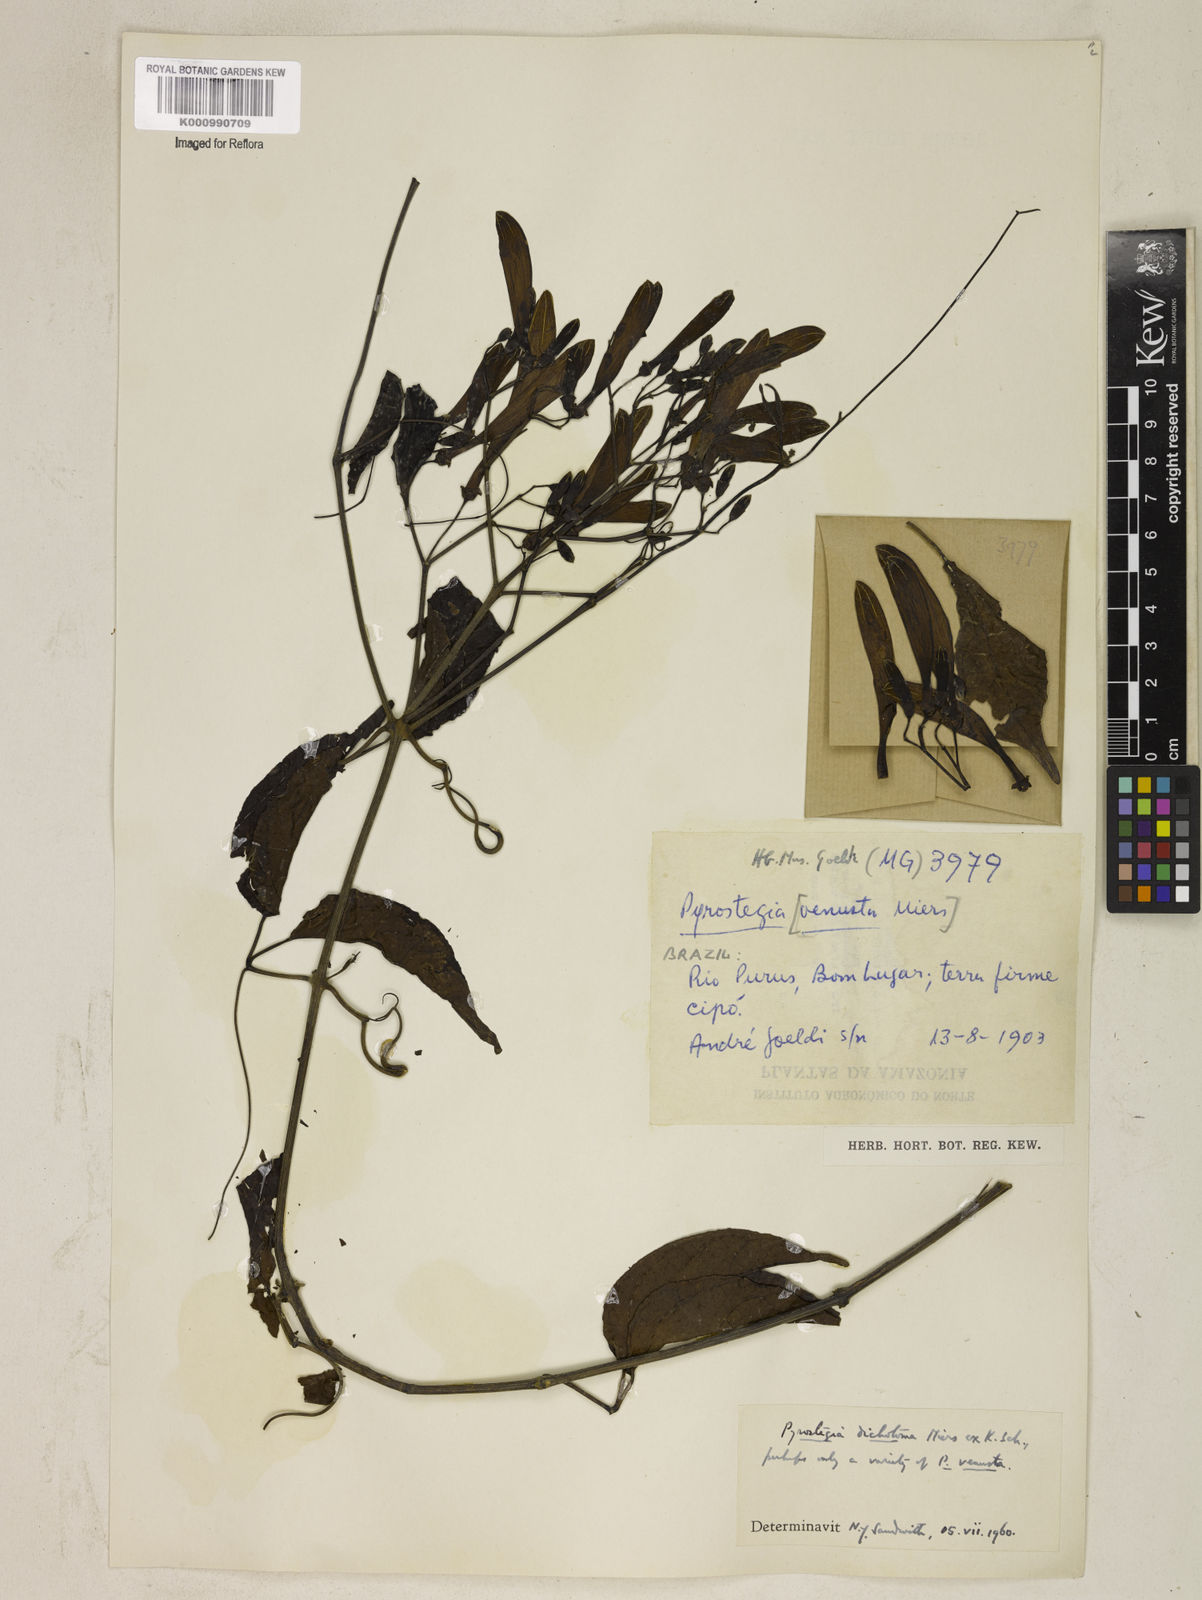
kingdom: Plantae
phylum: Tracheophyta
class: Magnoliopsida
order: Lamiales
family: Bignoniaceae
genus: Pyrostegia
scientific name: Pyrostegia
